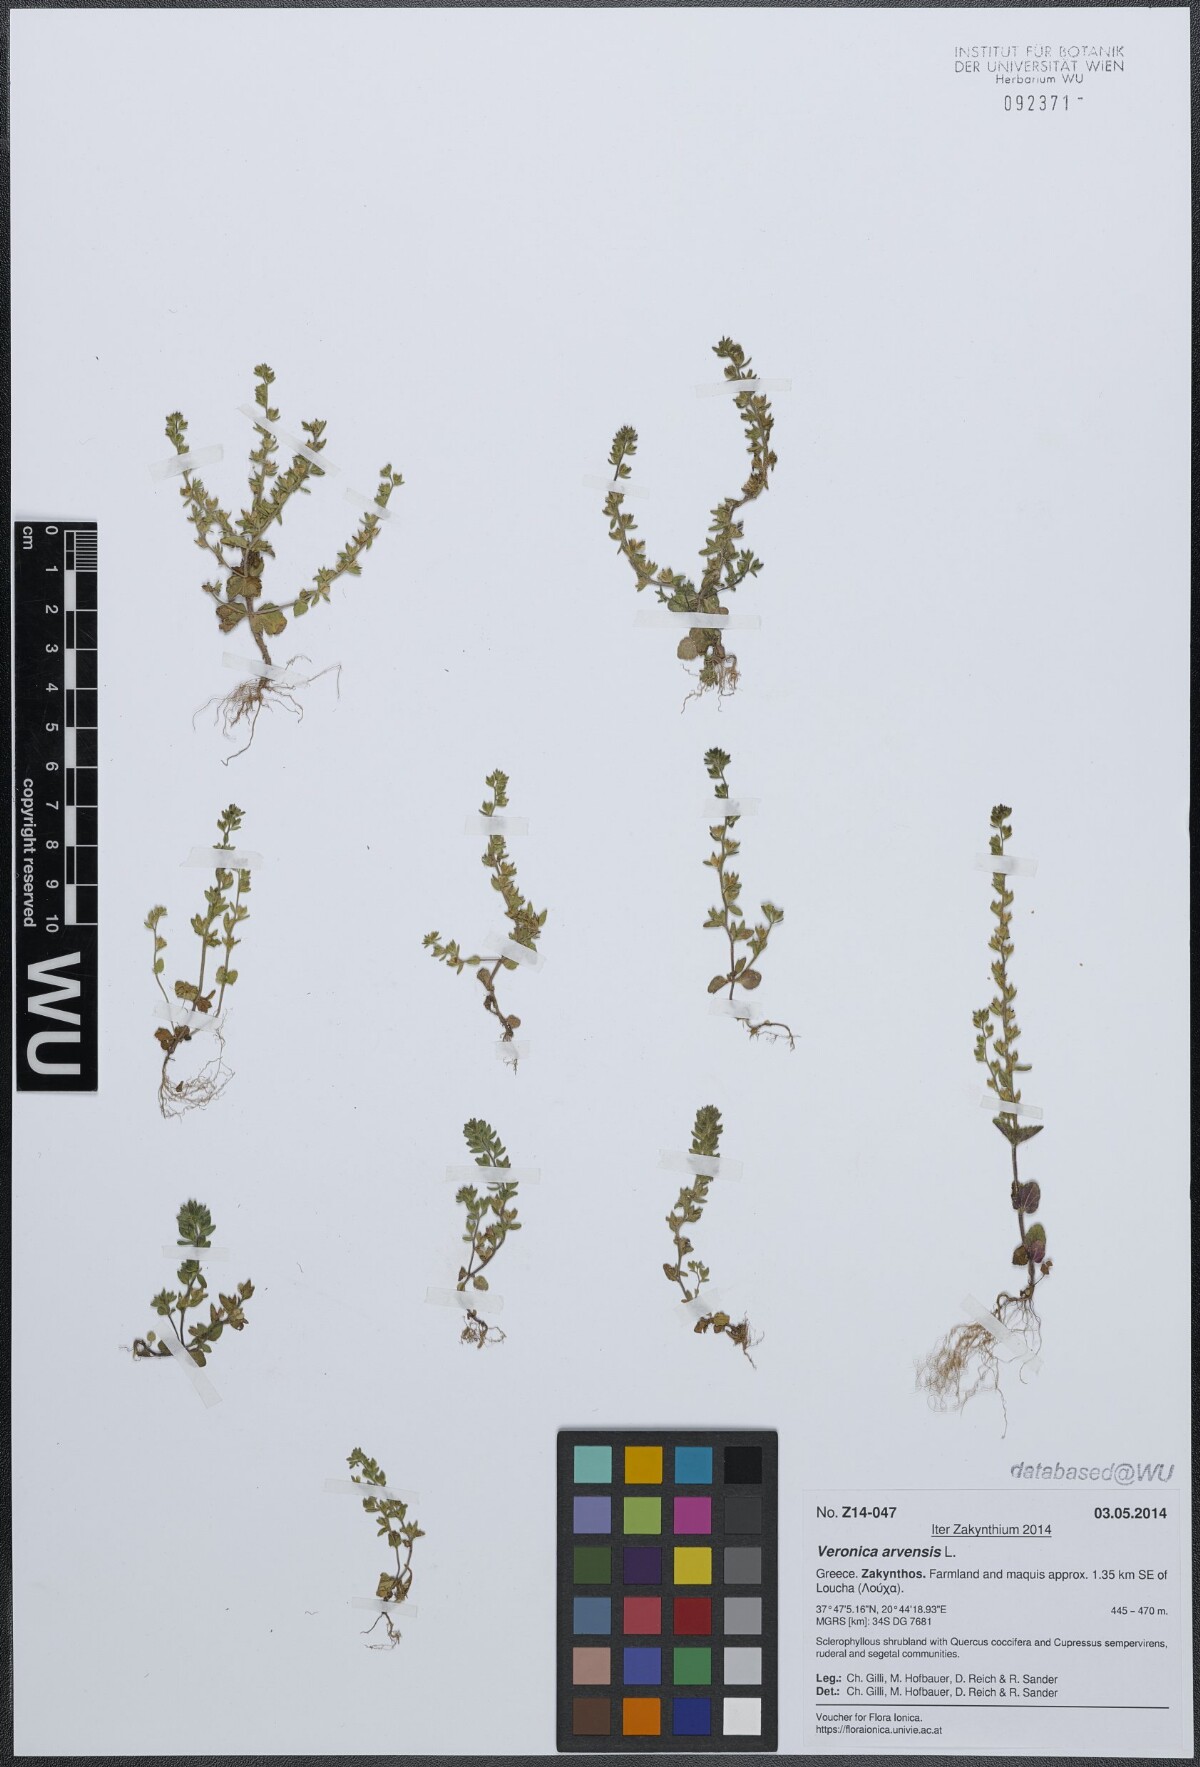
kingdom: Plantae
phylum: Tracheophyta
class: Magnoliopsida
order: Lamiales
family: Plantaginaceae
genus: Veronica
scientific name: Veronica arvensis
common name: Corn speedwell
